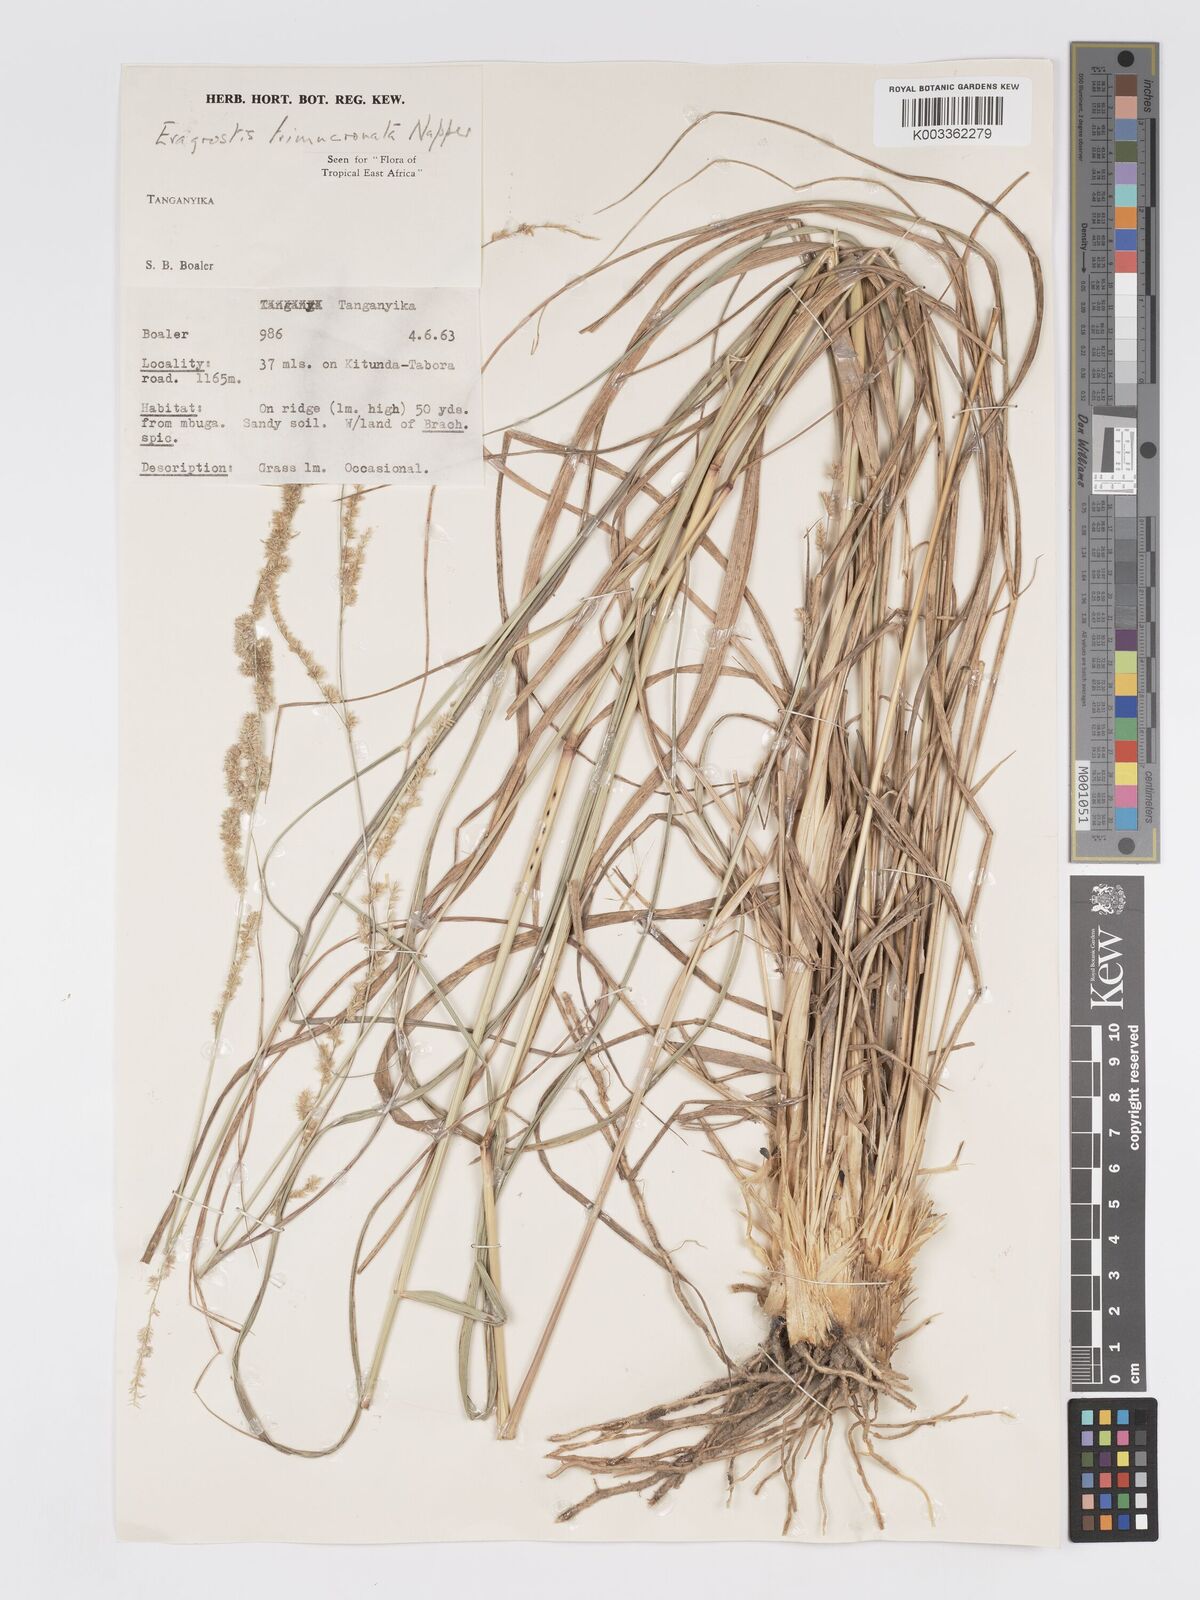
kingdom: Plantae
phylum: Tracheophyta
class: Liliopsida
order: Poales
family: Poaceae
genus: Eragrostis
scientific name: Eragrostis trimucronata
